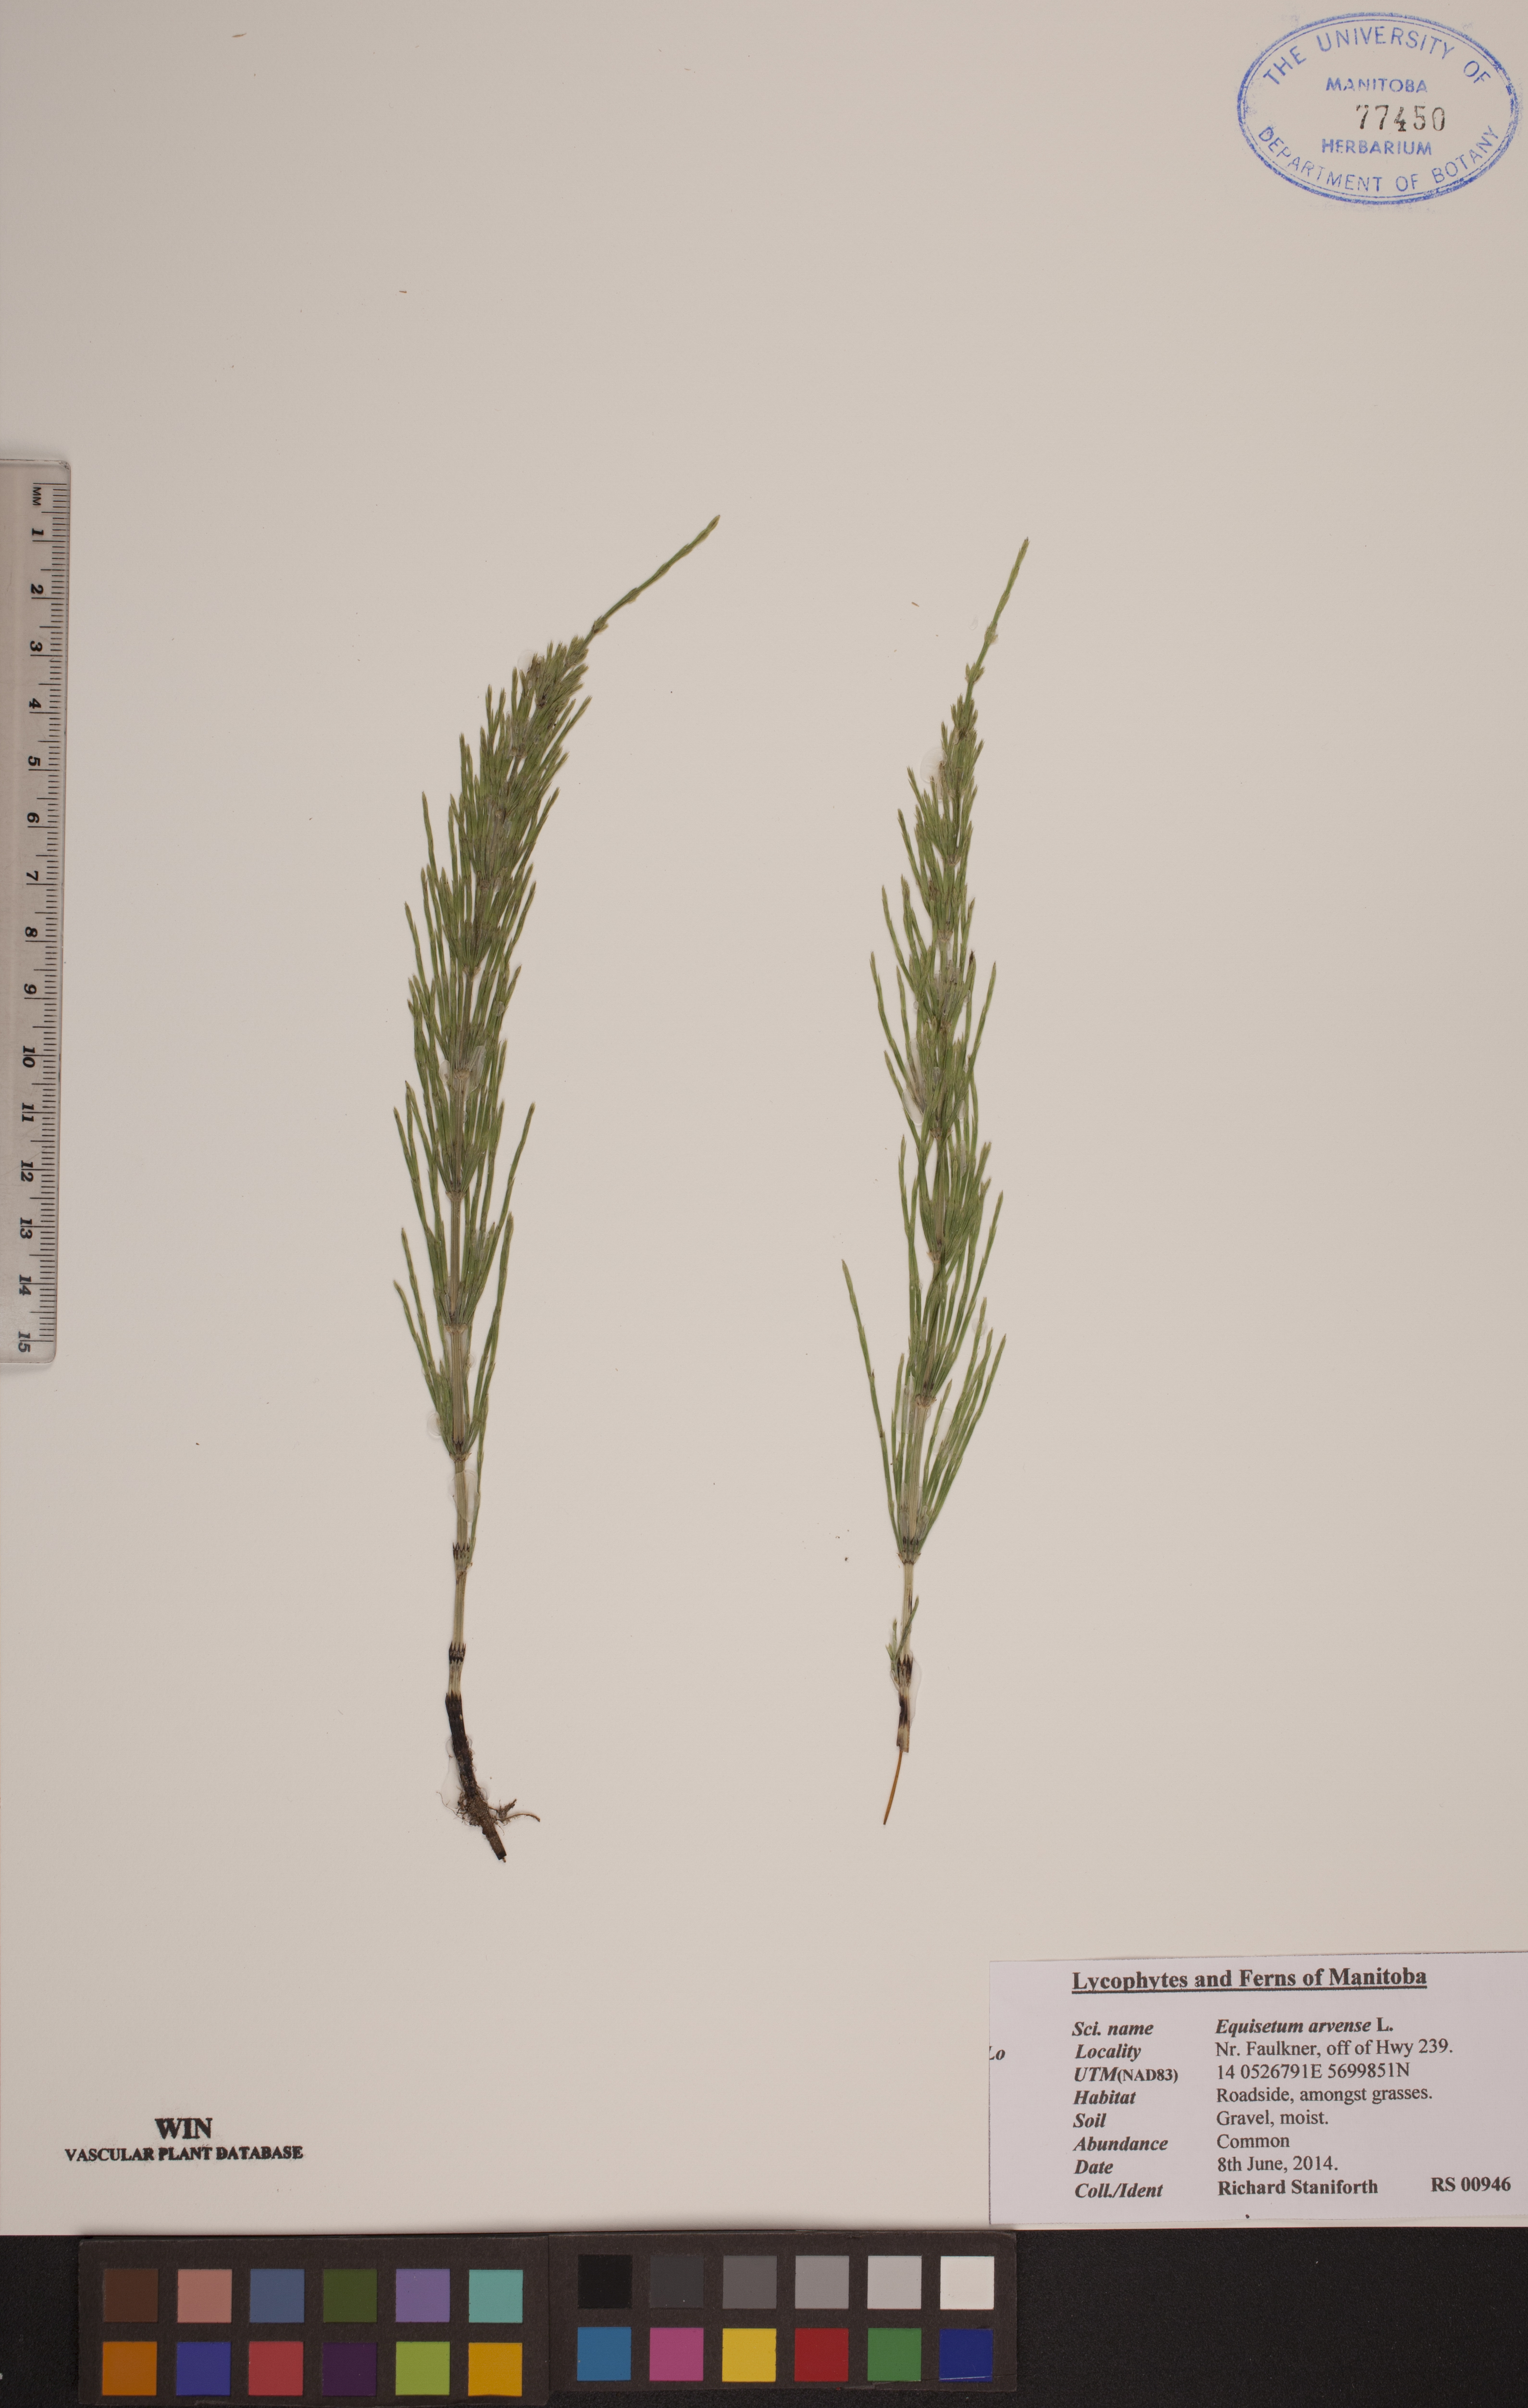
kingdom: Plantae
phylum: Tracheophyta
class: Polypodiopsida
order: Equisetales
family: Equisetaceae
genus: Equisetum
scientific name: Equisetum arvense
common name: Field horsetail
